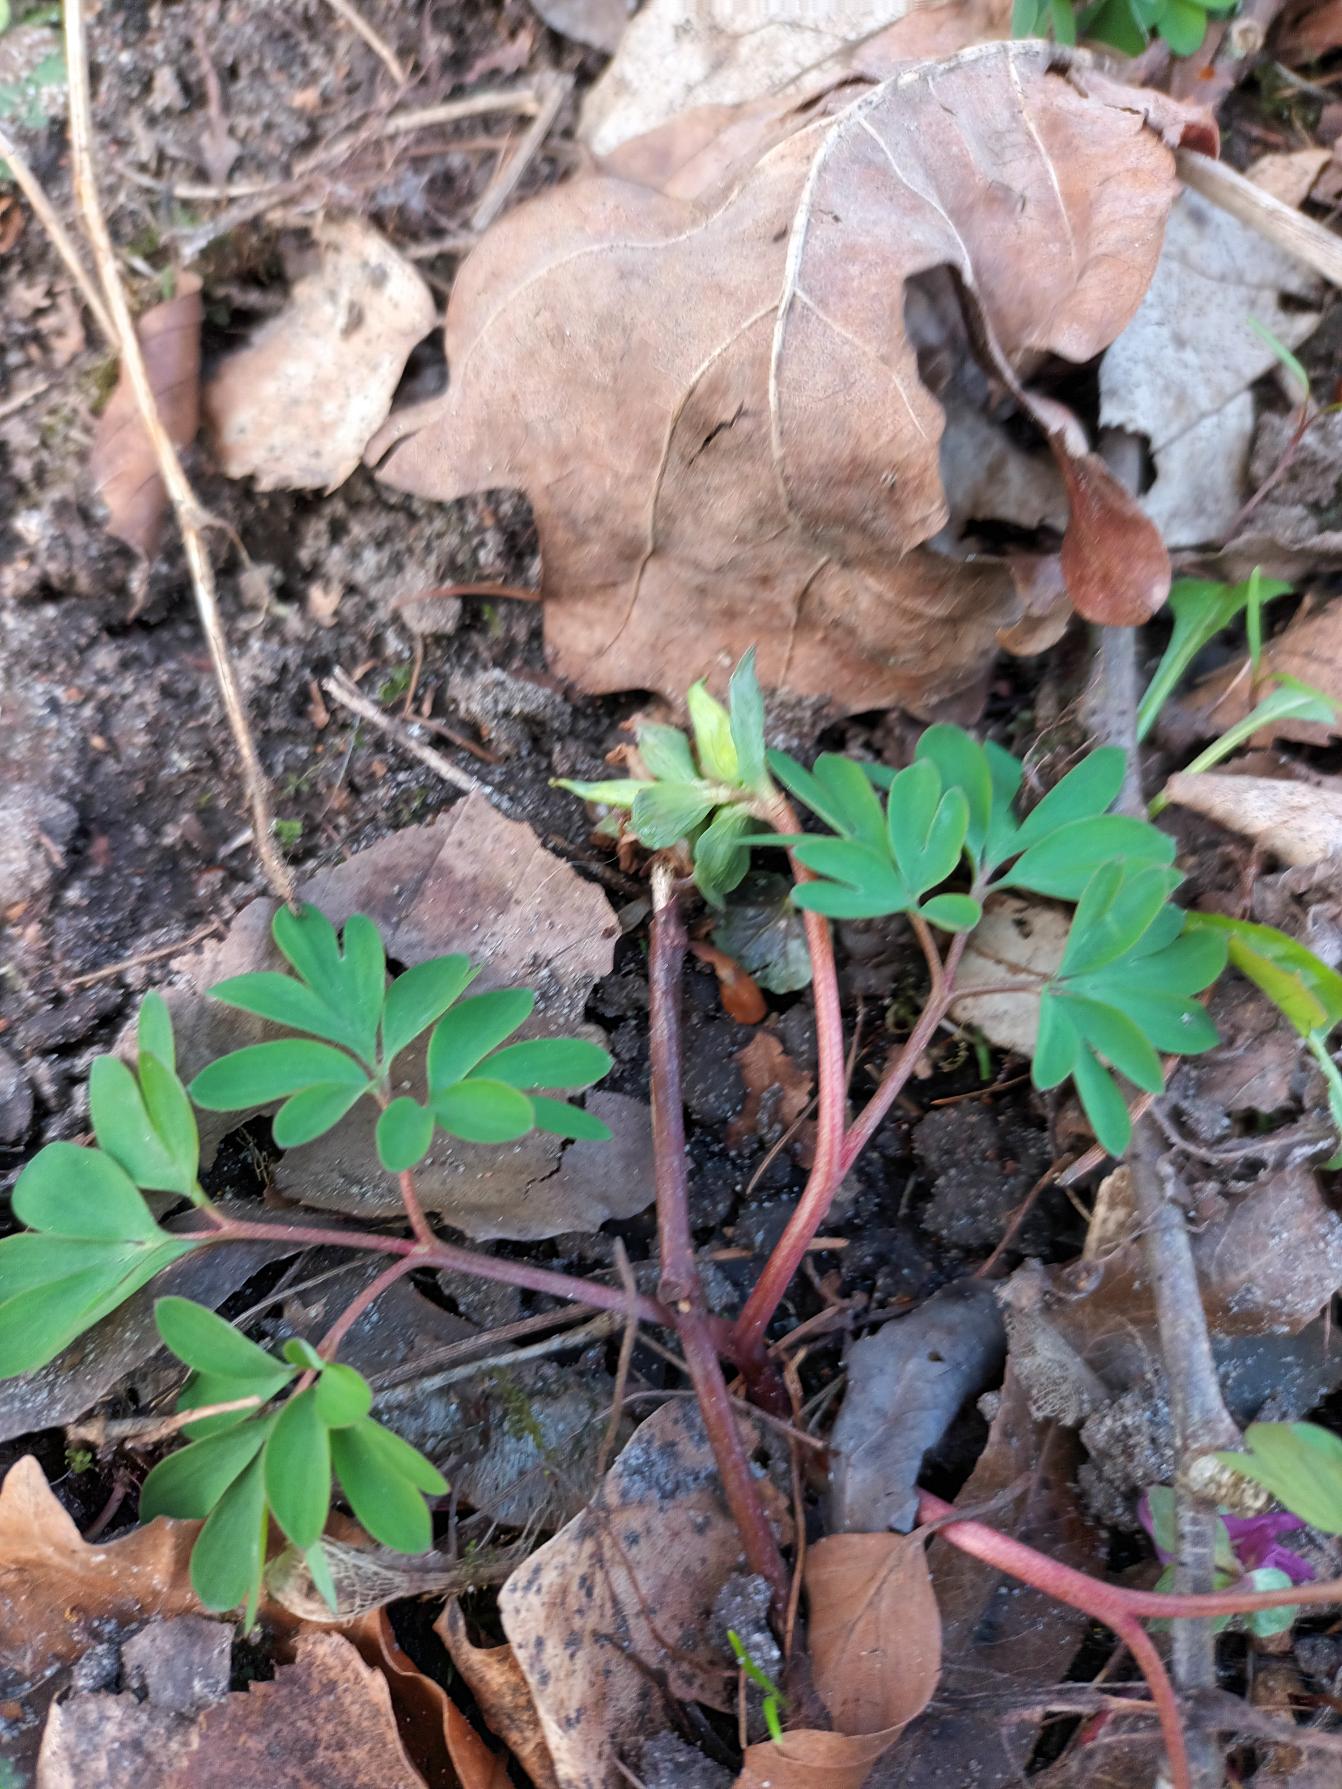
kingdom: Plantae
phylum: Tracheophyta
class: Magnoliopsida
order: Ranunculales
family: Papaveraceae
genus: Corydalis
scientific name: Corydalis intermedia
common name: Liden lærkespore
